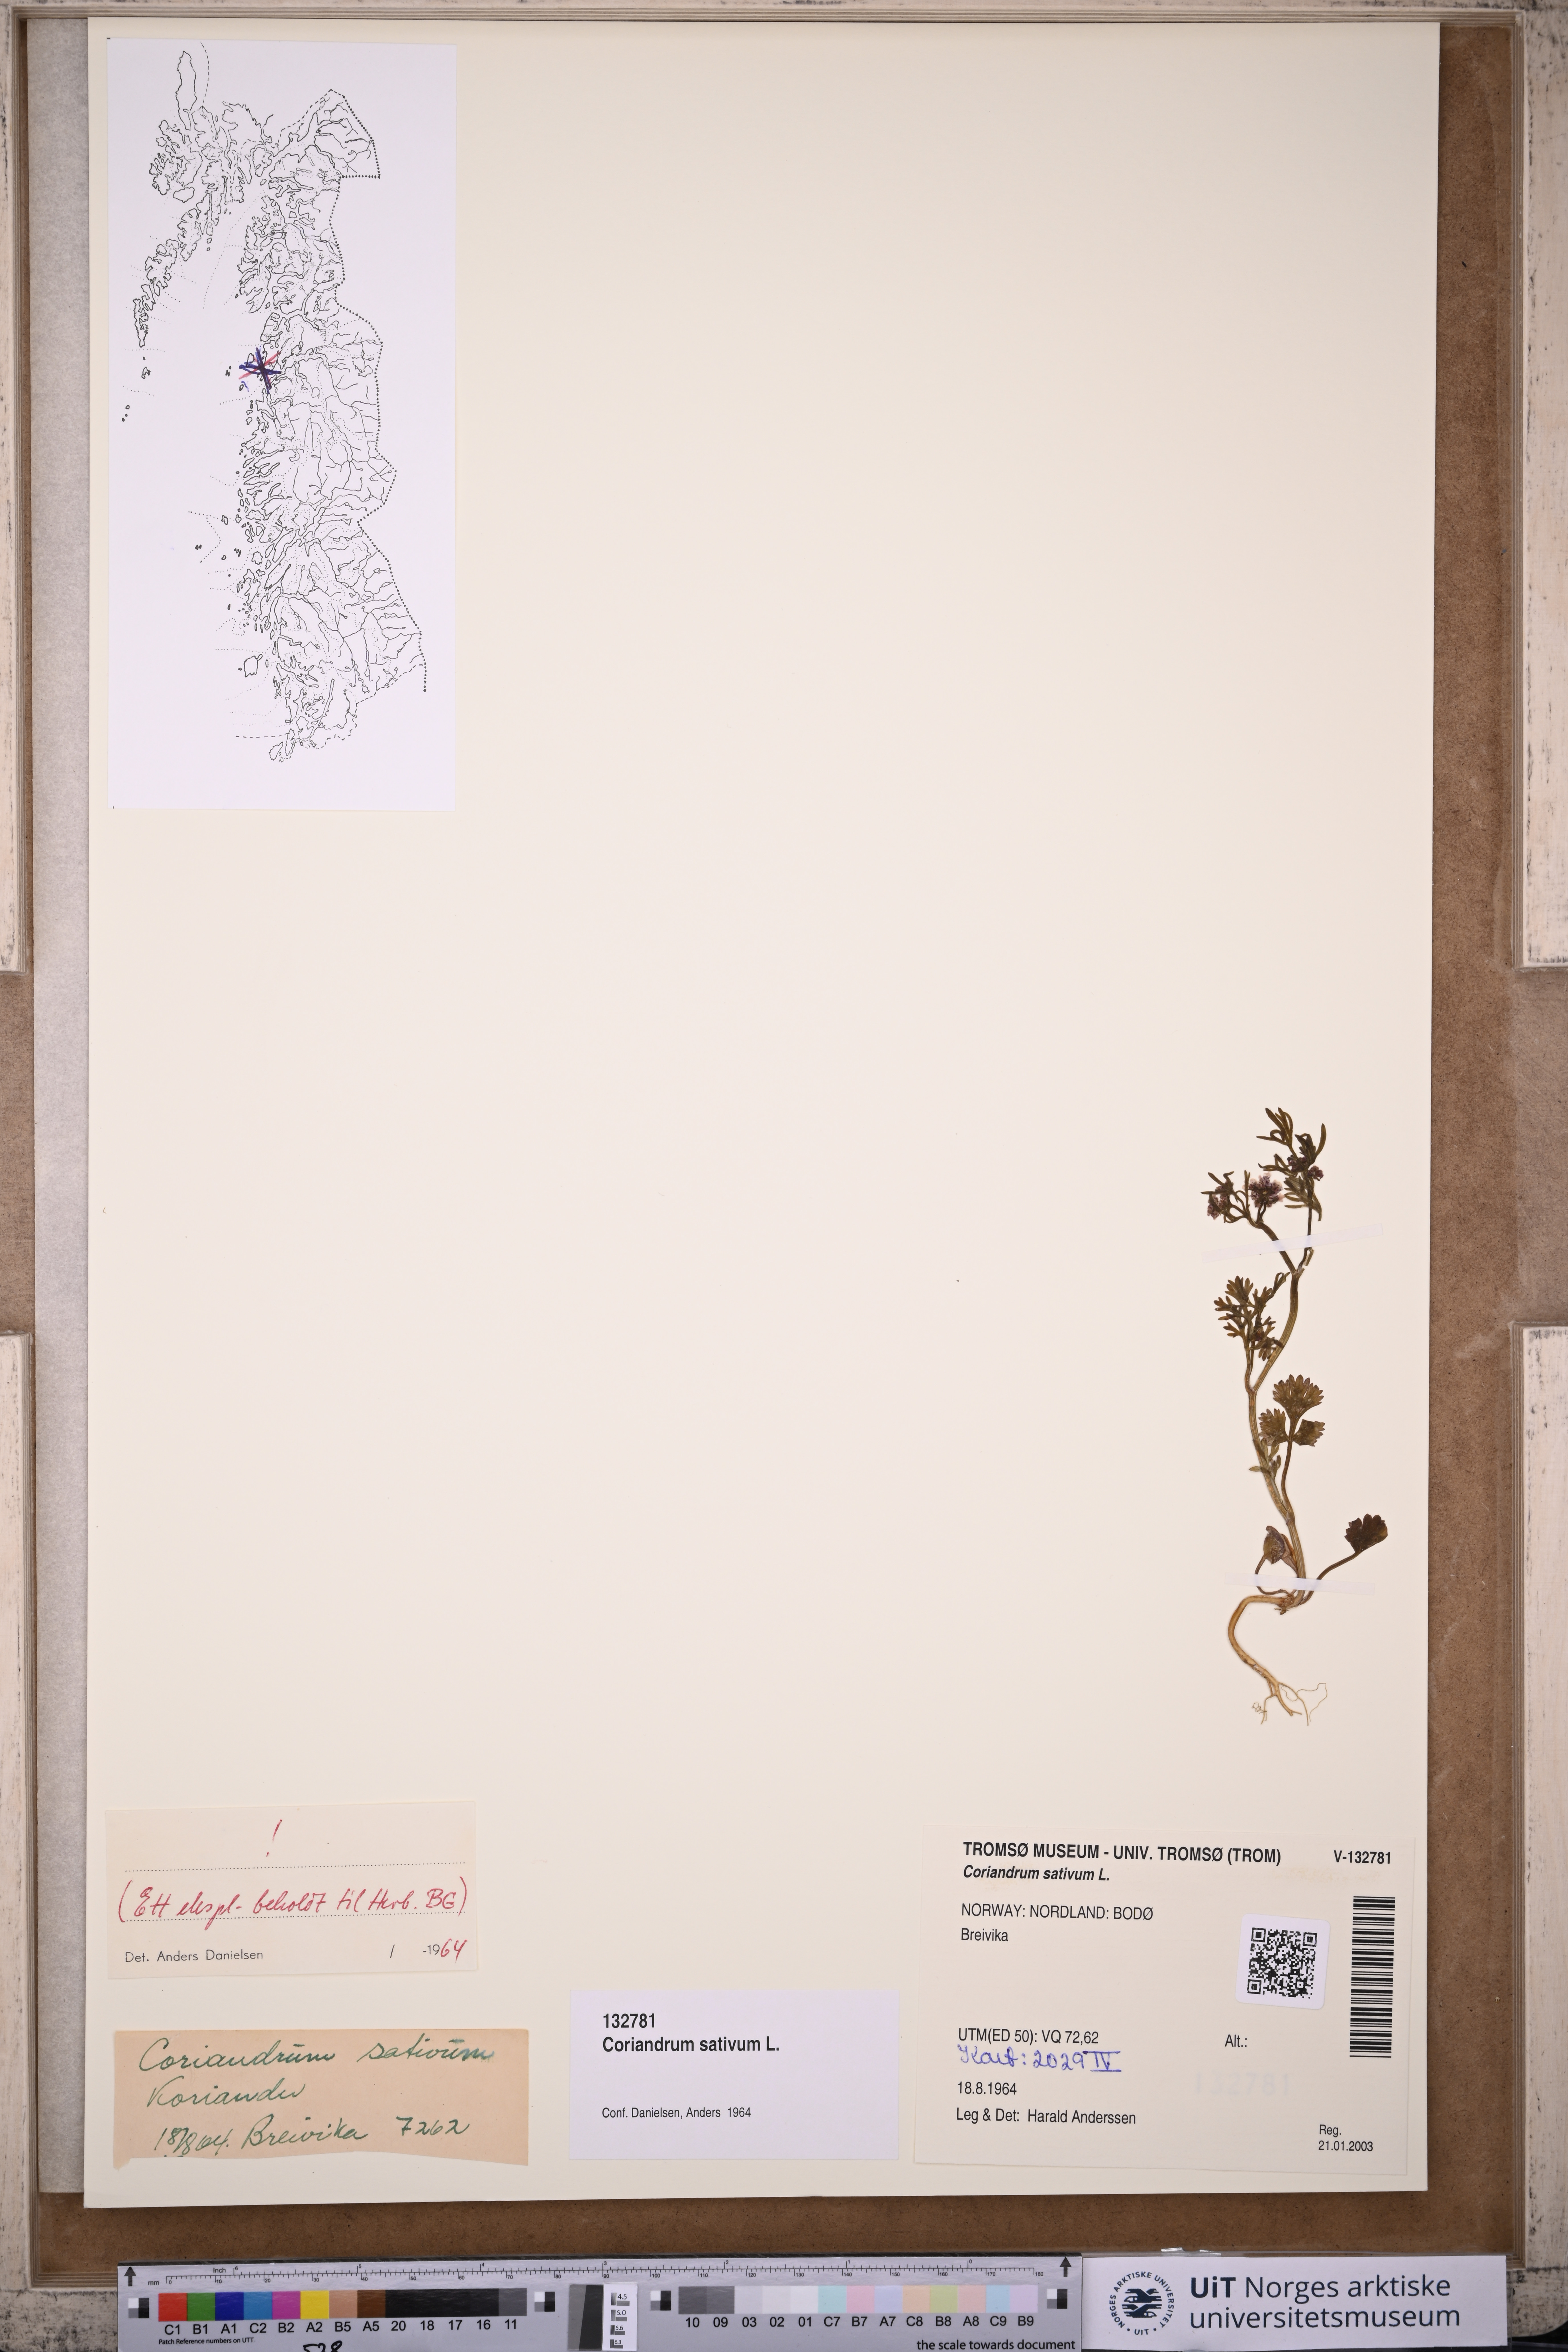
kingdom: Plantae
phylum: Tracheophyta
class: Magnoliopsida
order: Apiales
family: Apiaceae
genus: Coriandrum
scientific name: Coriandrum sativum
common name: Coriander
